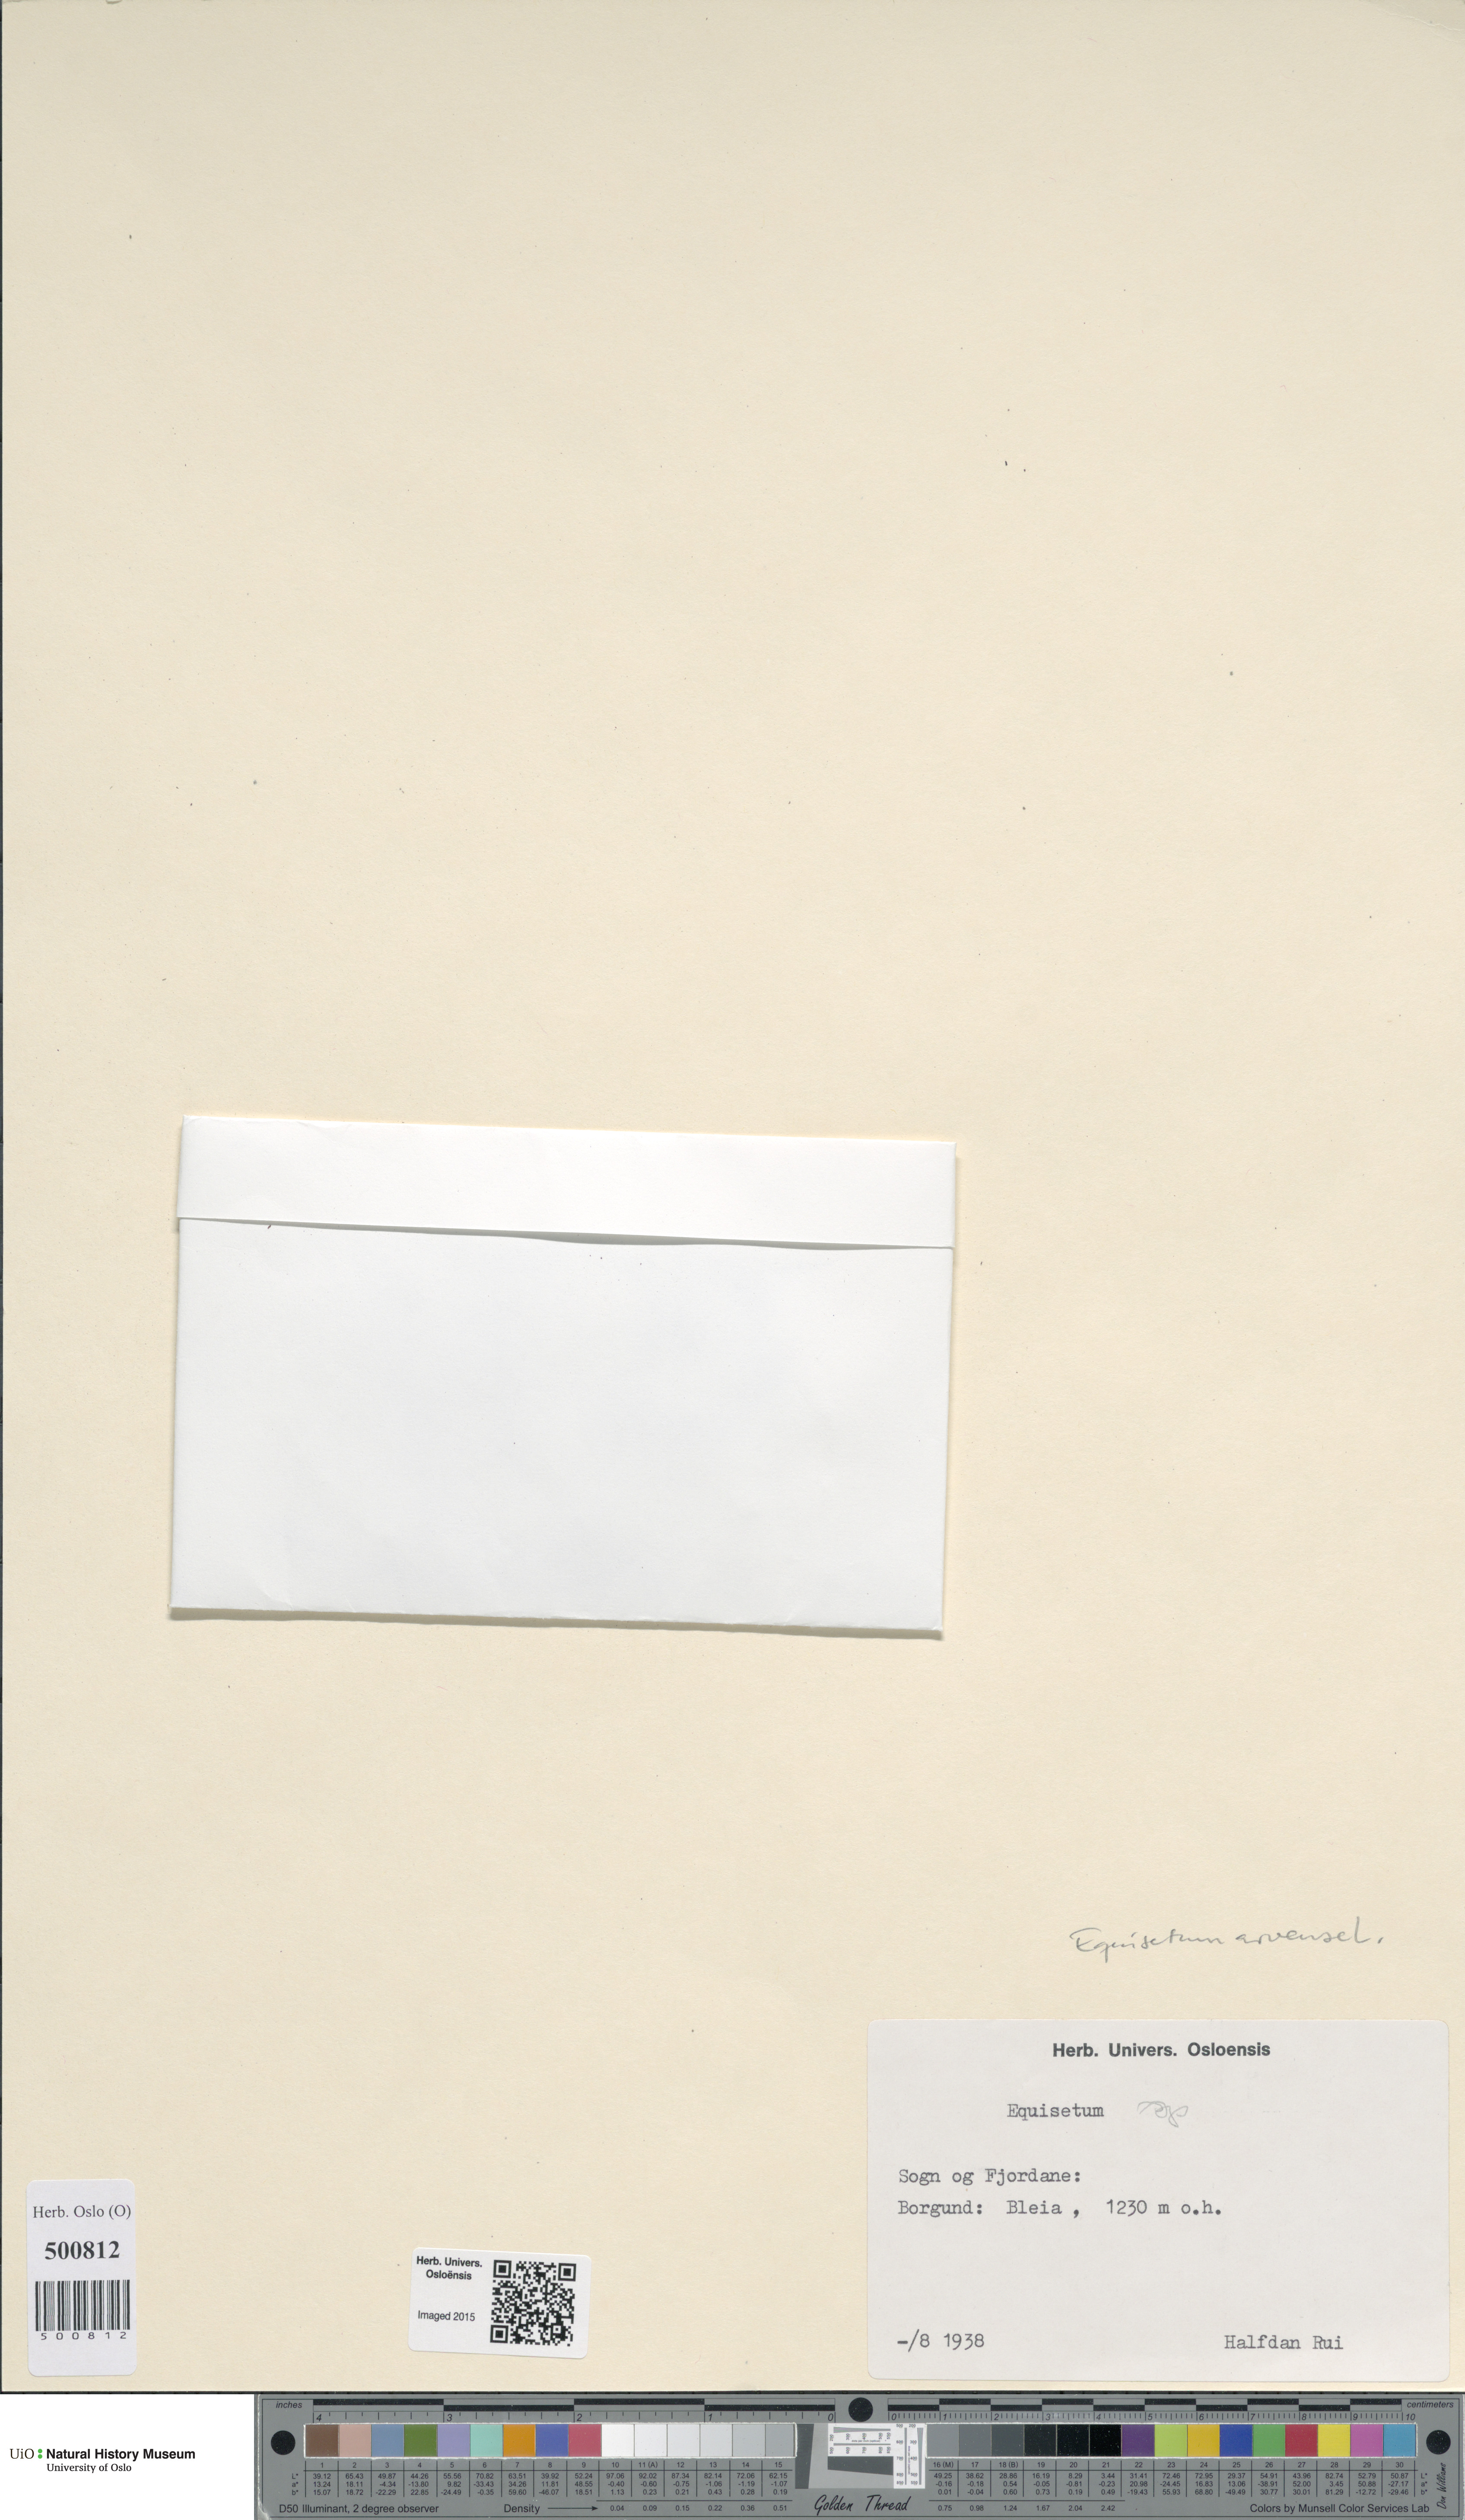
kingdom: Plantae
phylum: Tracheophyta
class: Polypodiopsida
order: Equisetales
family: Equisetaceae
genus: Equisetum
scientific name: Equisetum arvense
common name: Field horsetail
